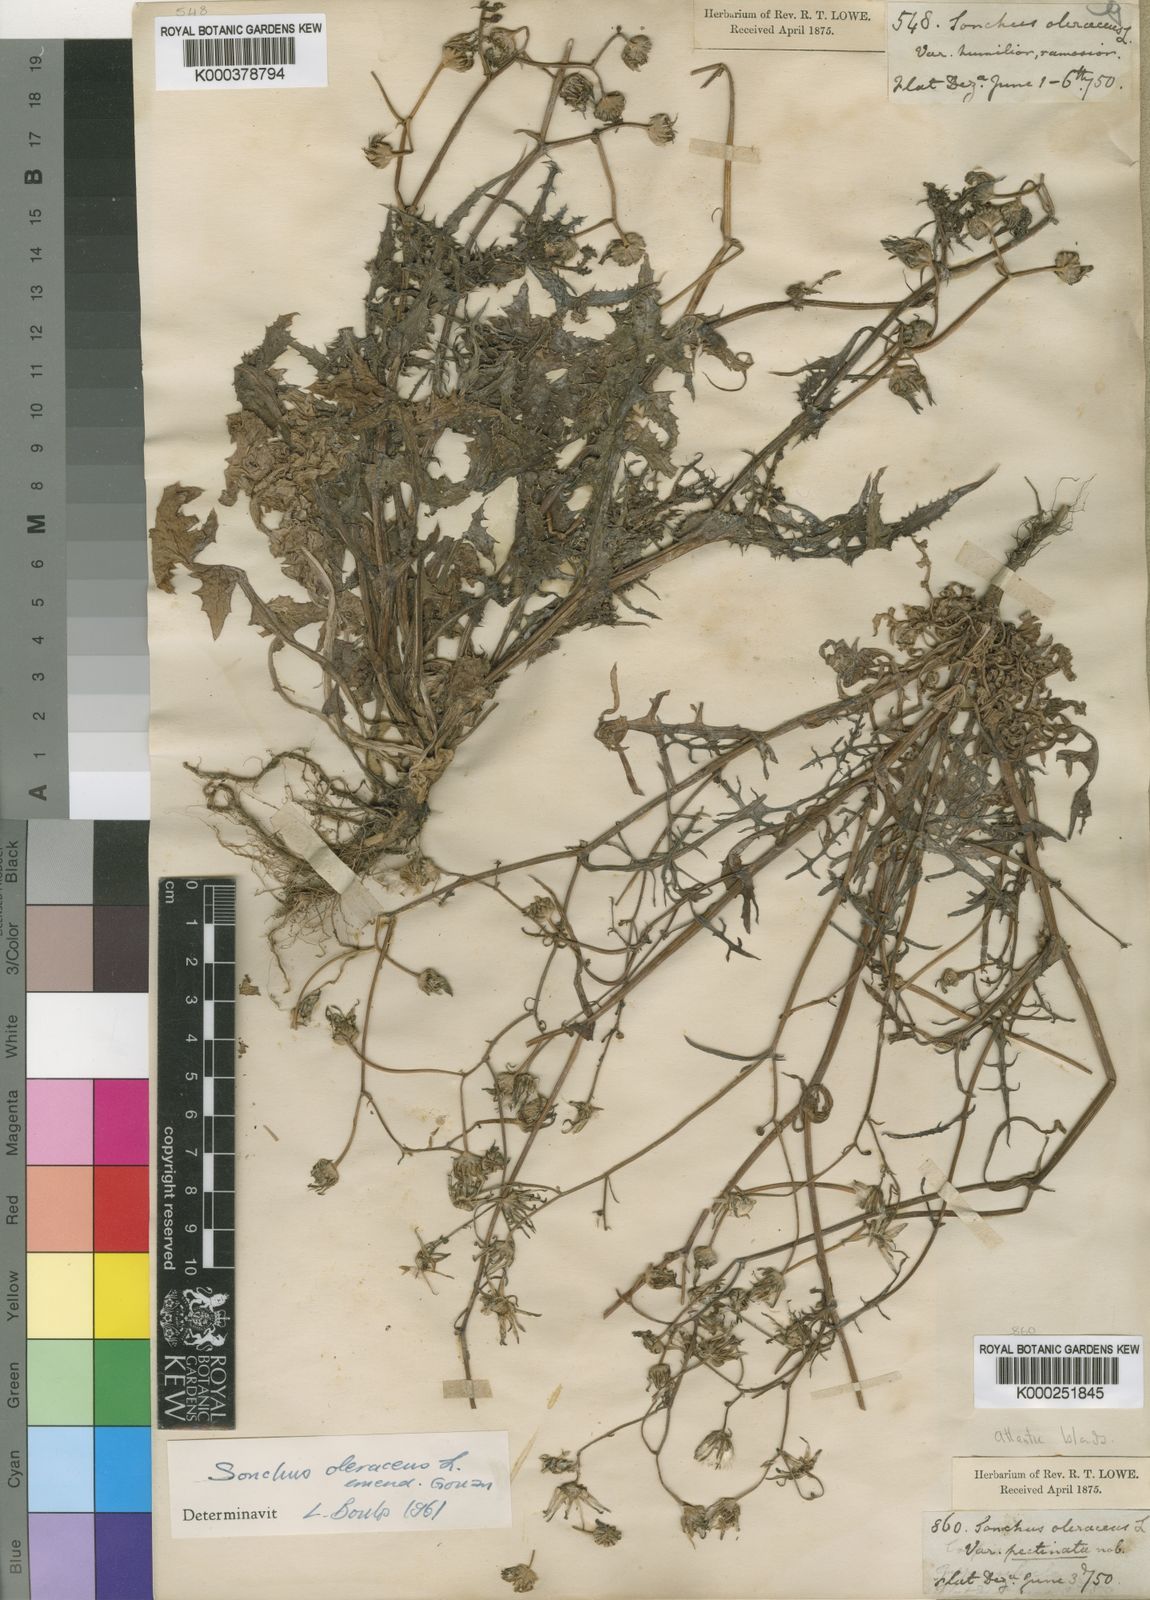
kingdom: Plantae
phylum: Tracheophyta
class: Magnoliopsida
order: Asterales
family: Asteraceae
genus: Sonchus
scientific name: Sonchus asper
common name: Prickly sow-thistle
